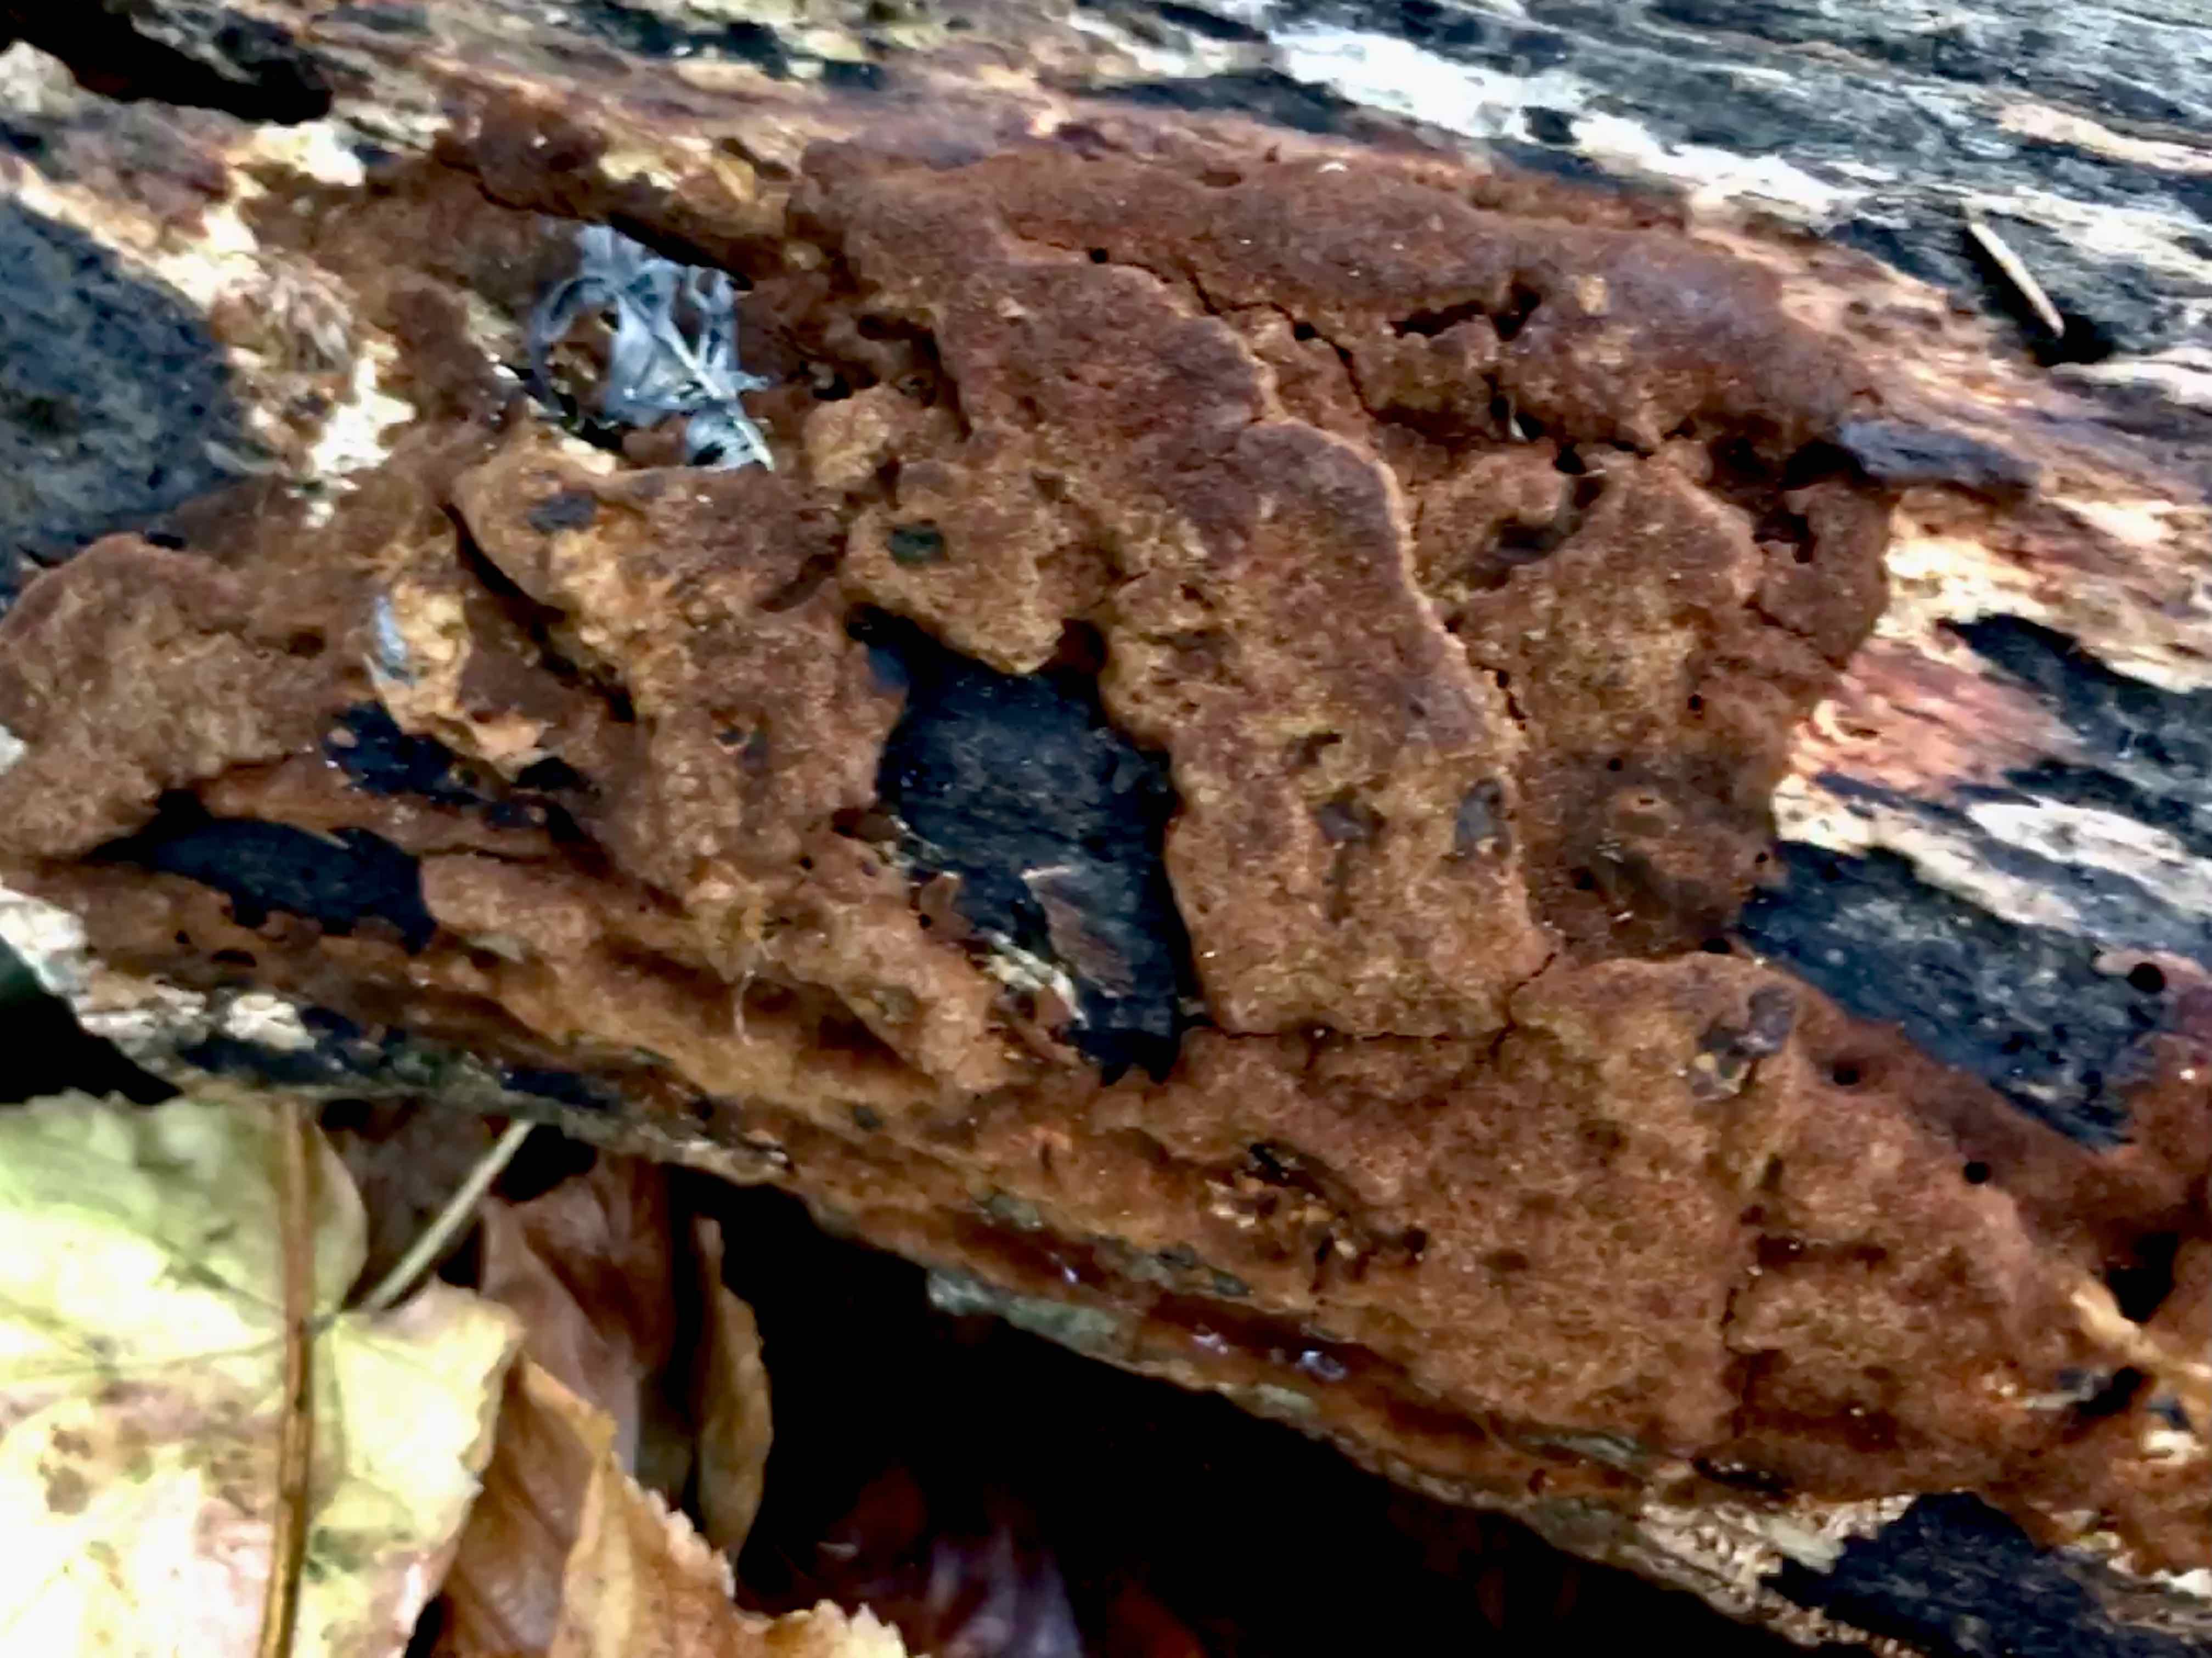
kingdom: Fungi
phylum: Basidiomycota
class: Agaricomycetes
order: Hymenochaetales
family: Hymenochaetaceae
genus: Fuscoporia
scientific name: Fuscoporia ferrea
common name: skorpe-ildporesvamp
